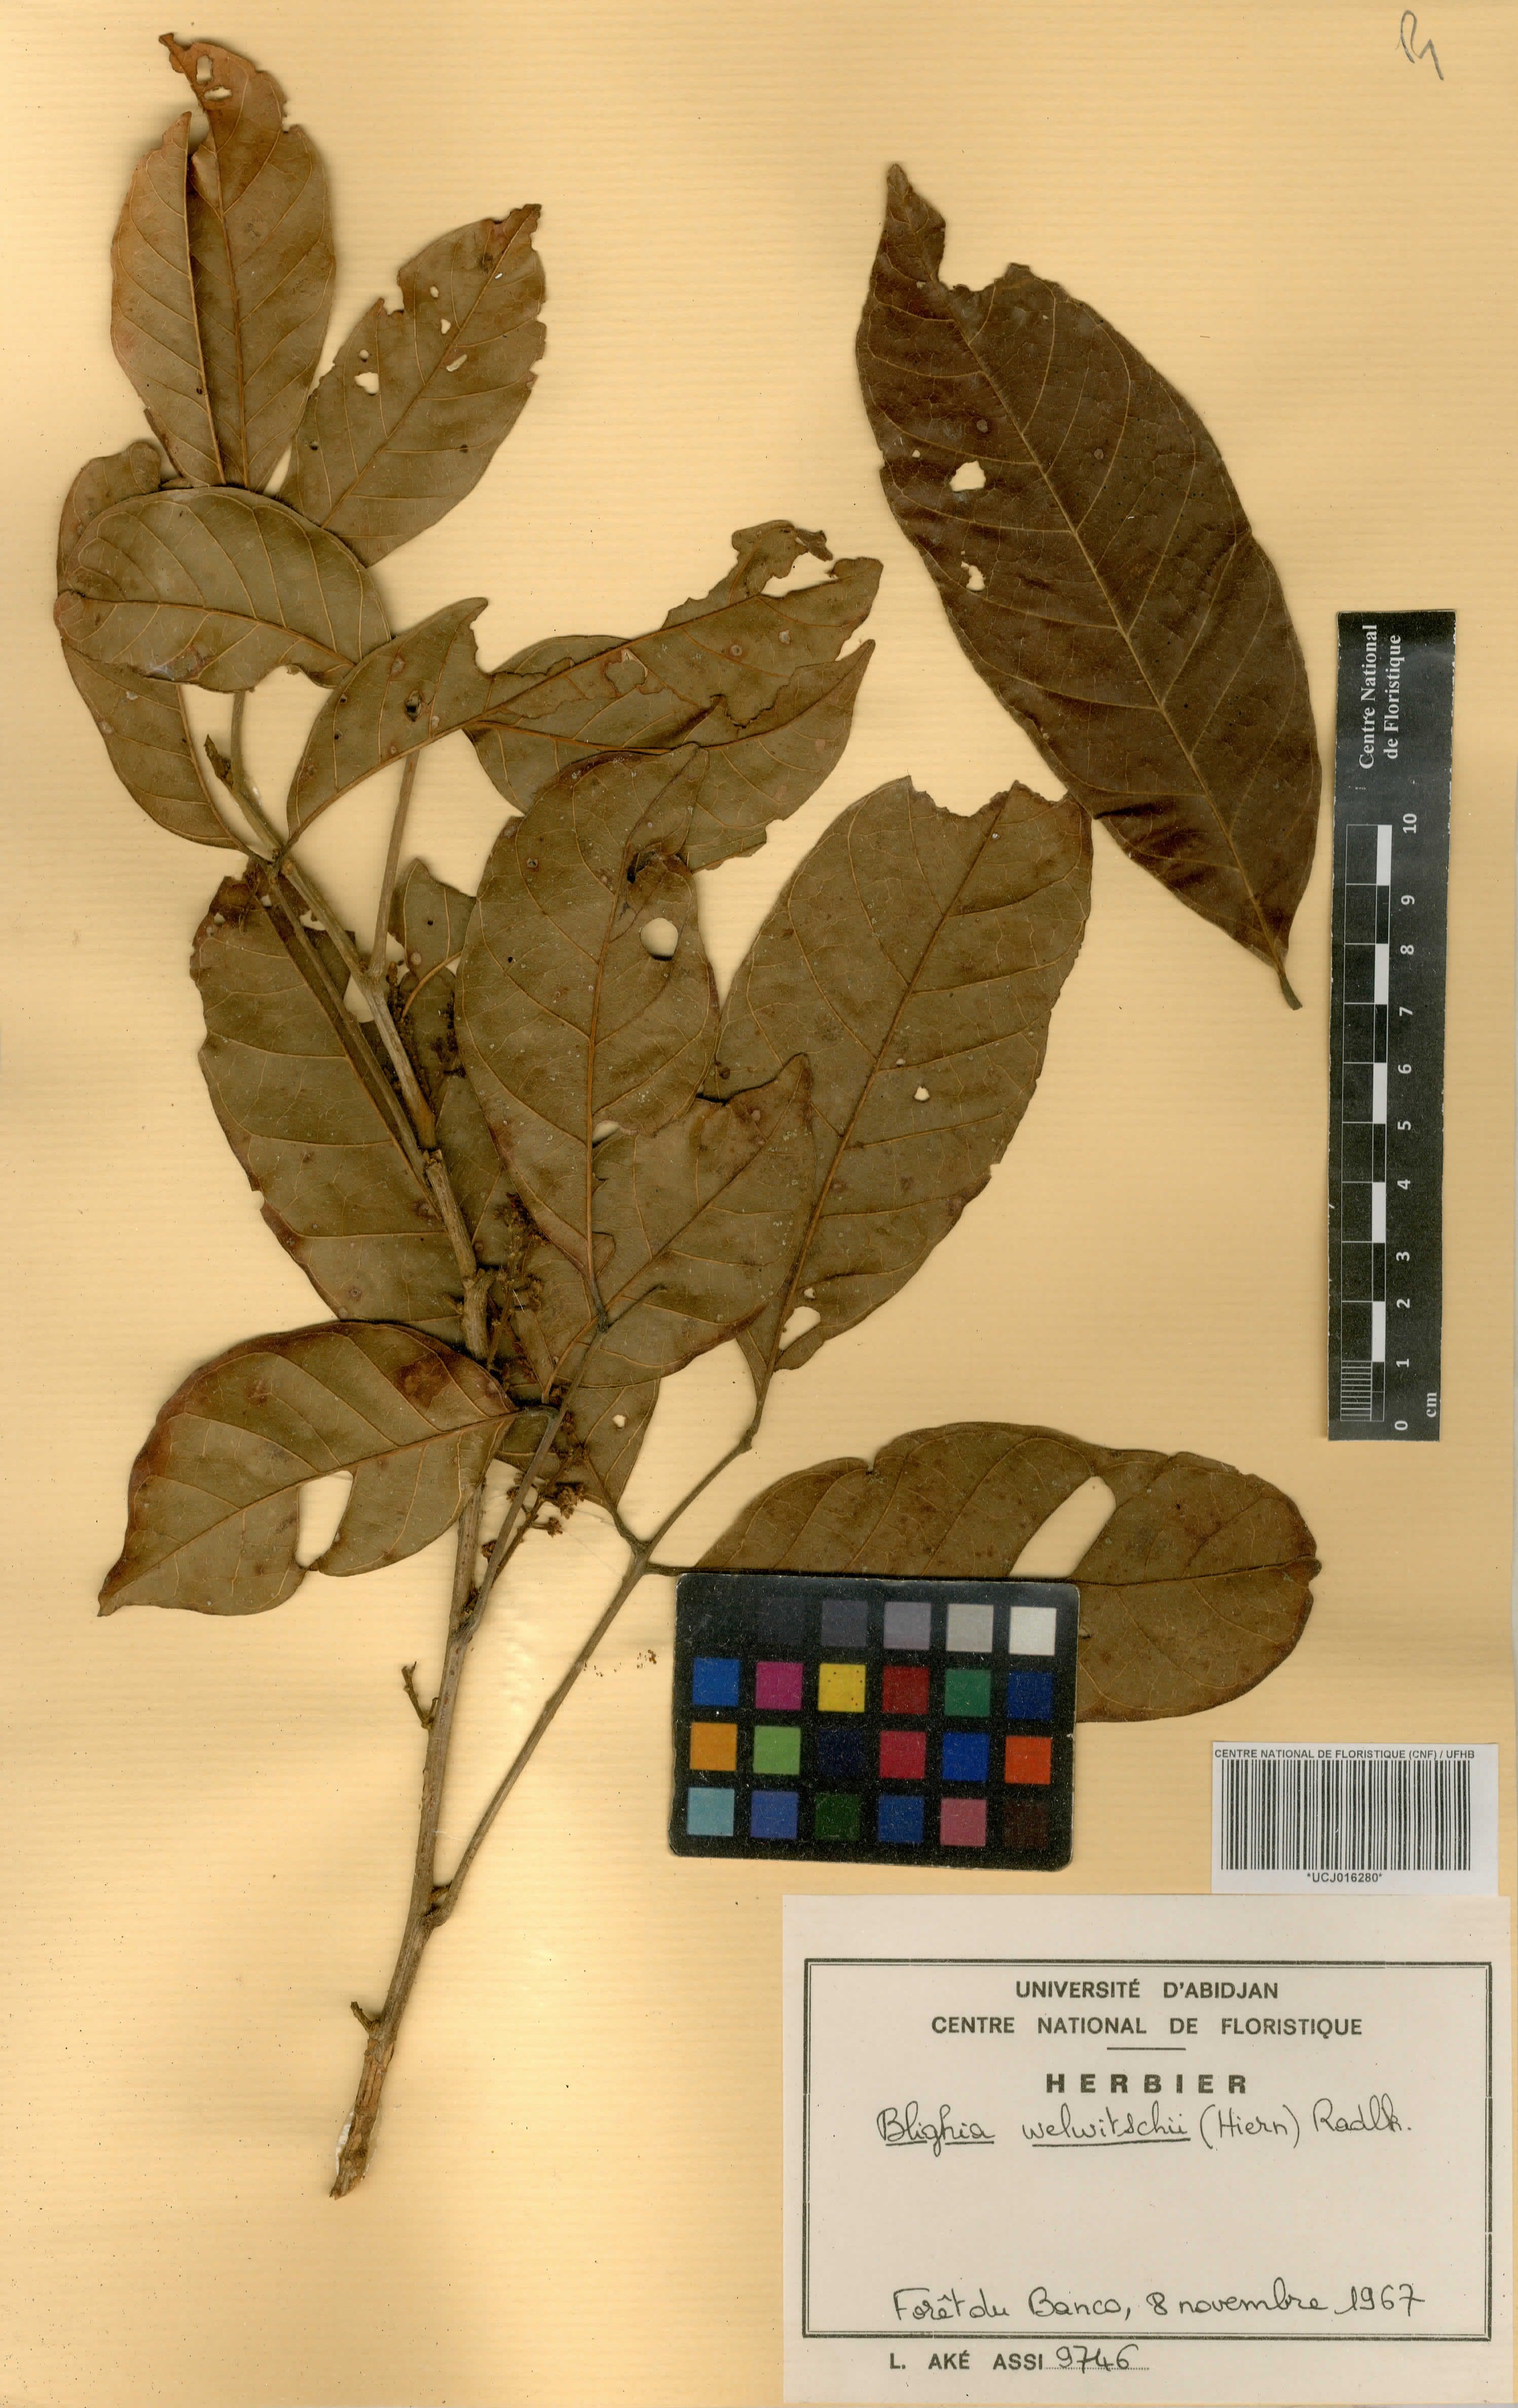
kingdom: Plantae
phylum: Tracheophyta
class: Magnoliopsida
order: Sapindales
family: Sapindaceae
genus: Blighia
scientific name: Blighia welwitschii
